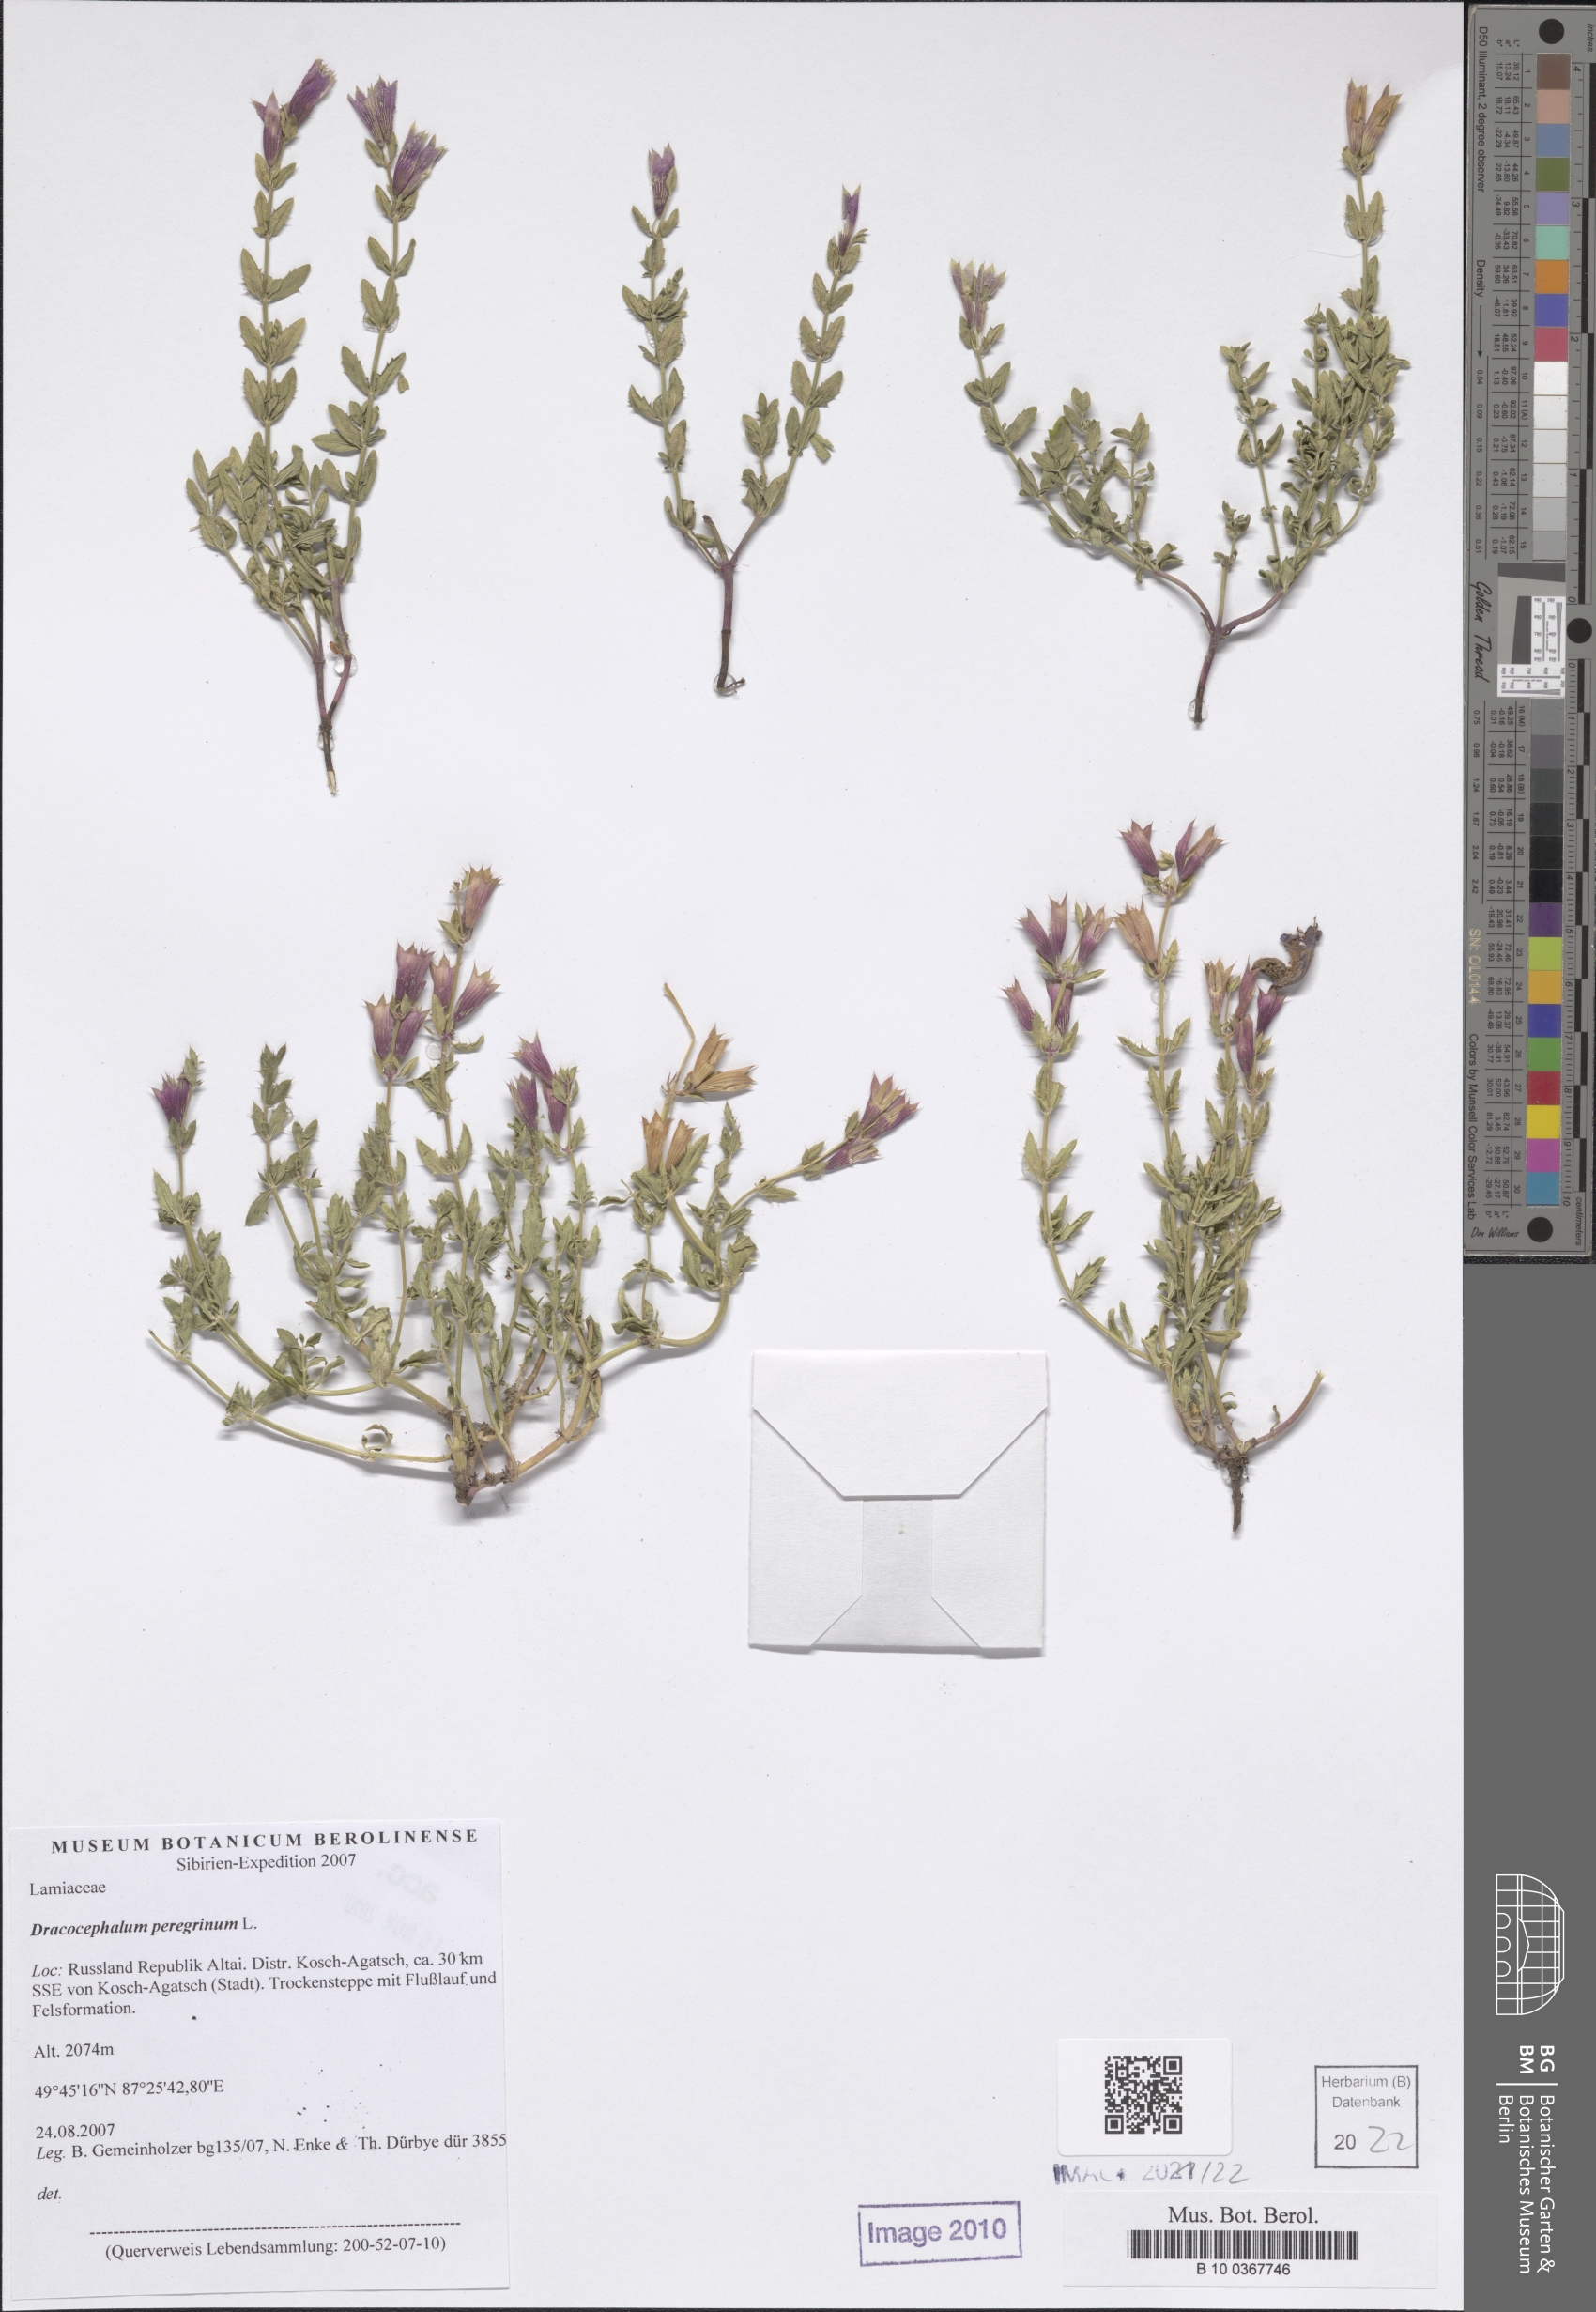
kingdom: Plantae
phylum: Tracheophyta
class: Magnoliopsida
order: Lamiales
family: Lamiaceae
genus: Dracocephalum
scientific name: Dracocephalum peregrinum
